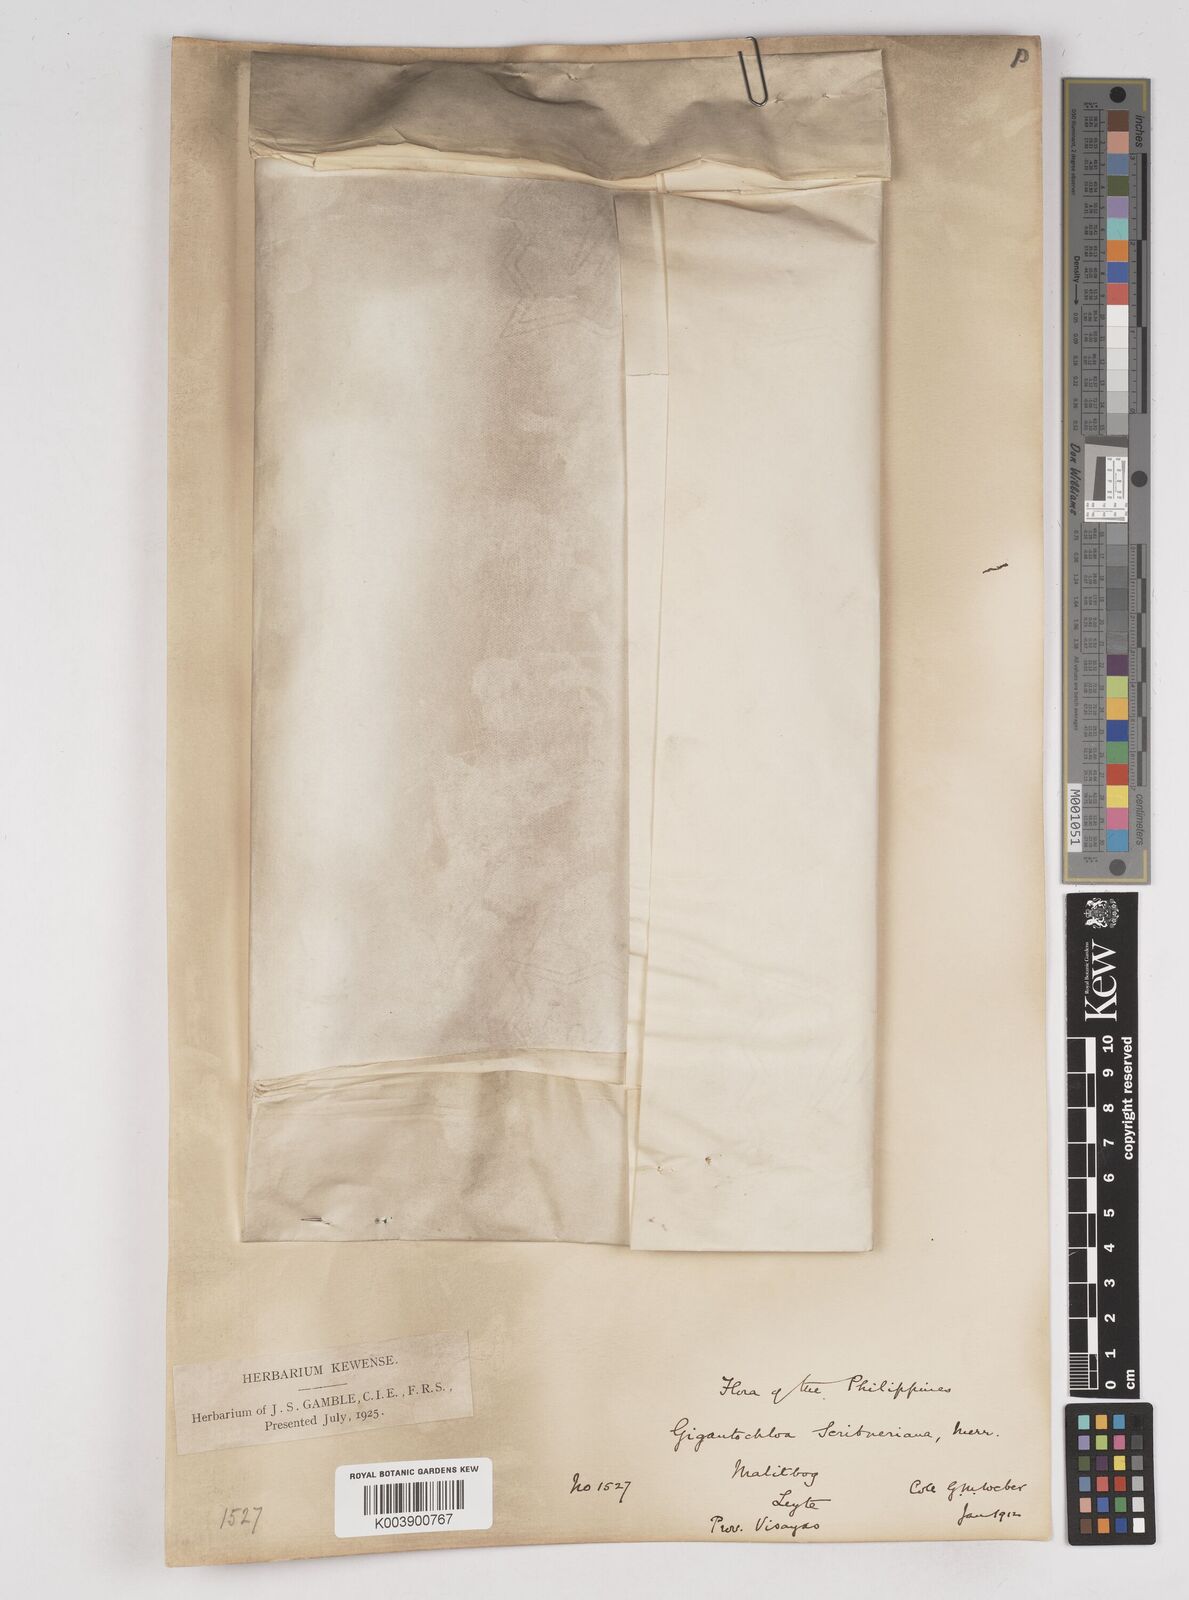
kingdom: Plantae
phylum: Tracheophyta
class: Liliopsida
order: Poales
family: Poaceae
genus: Gigantochloa
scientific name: Gigantochloa levis
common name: Smooth-shoot gigantochloa
